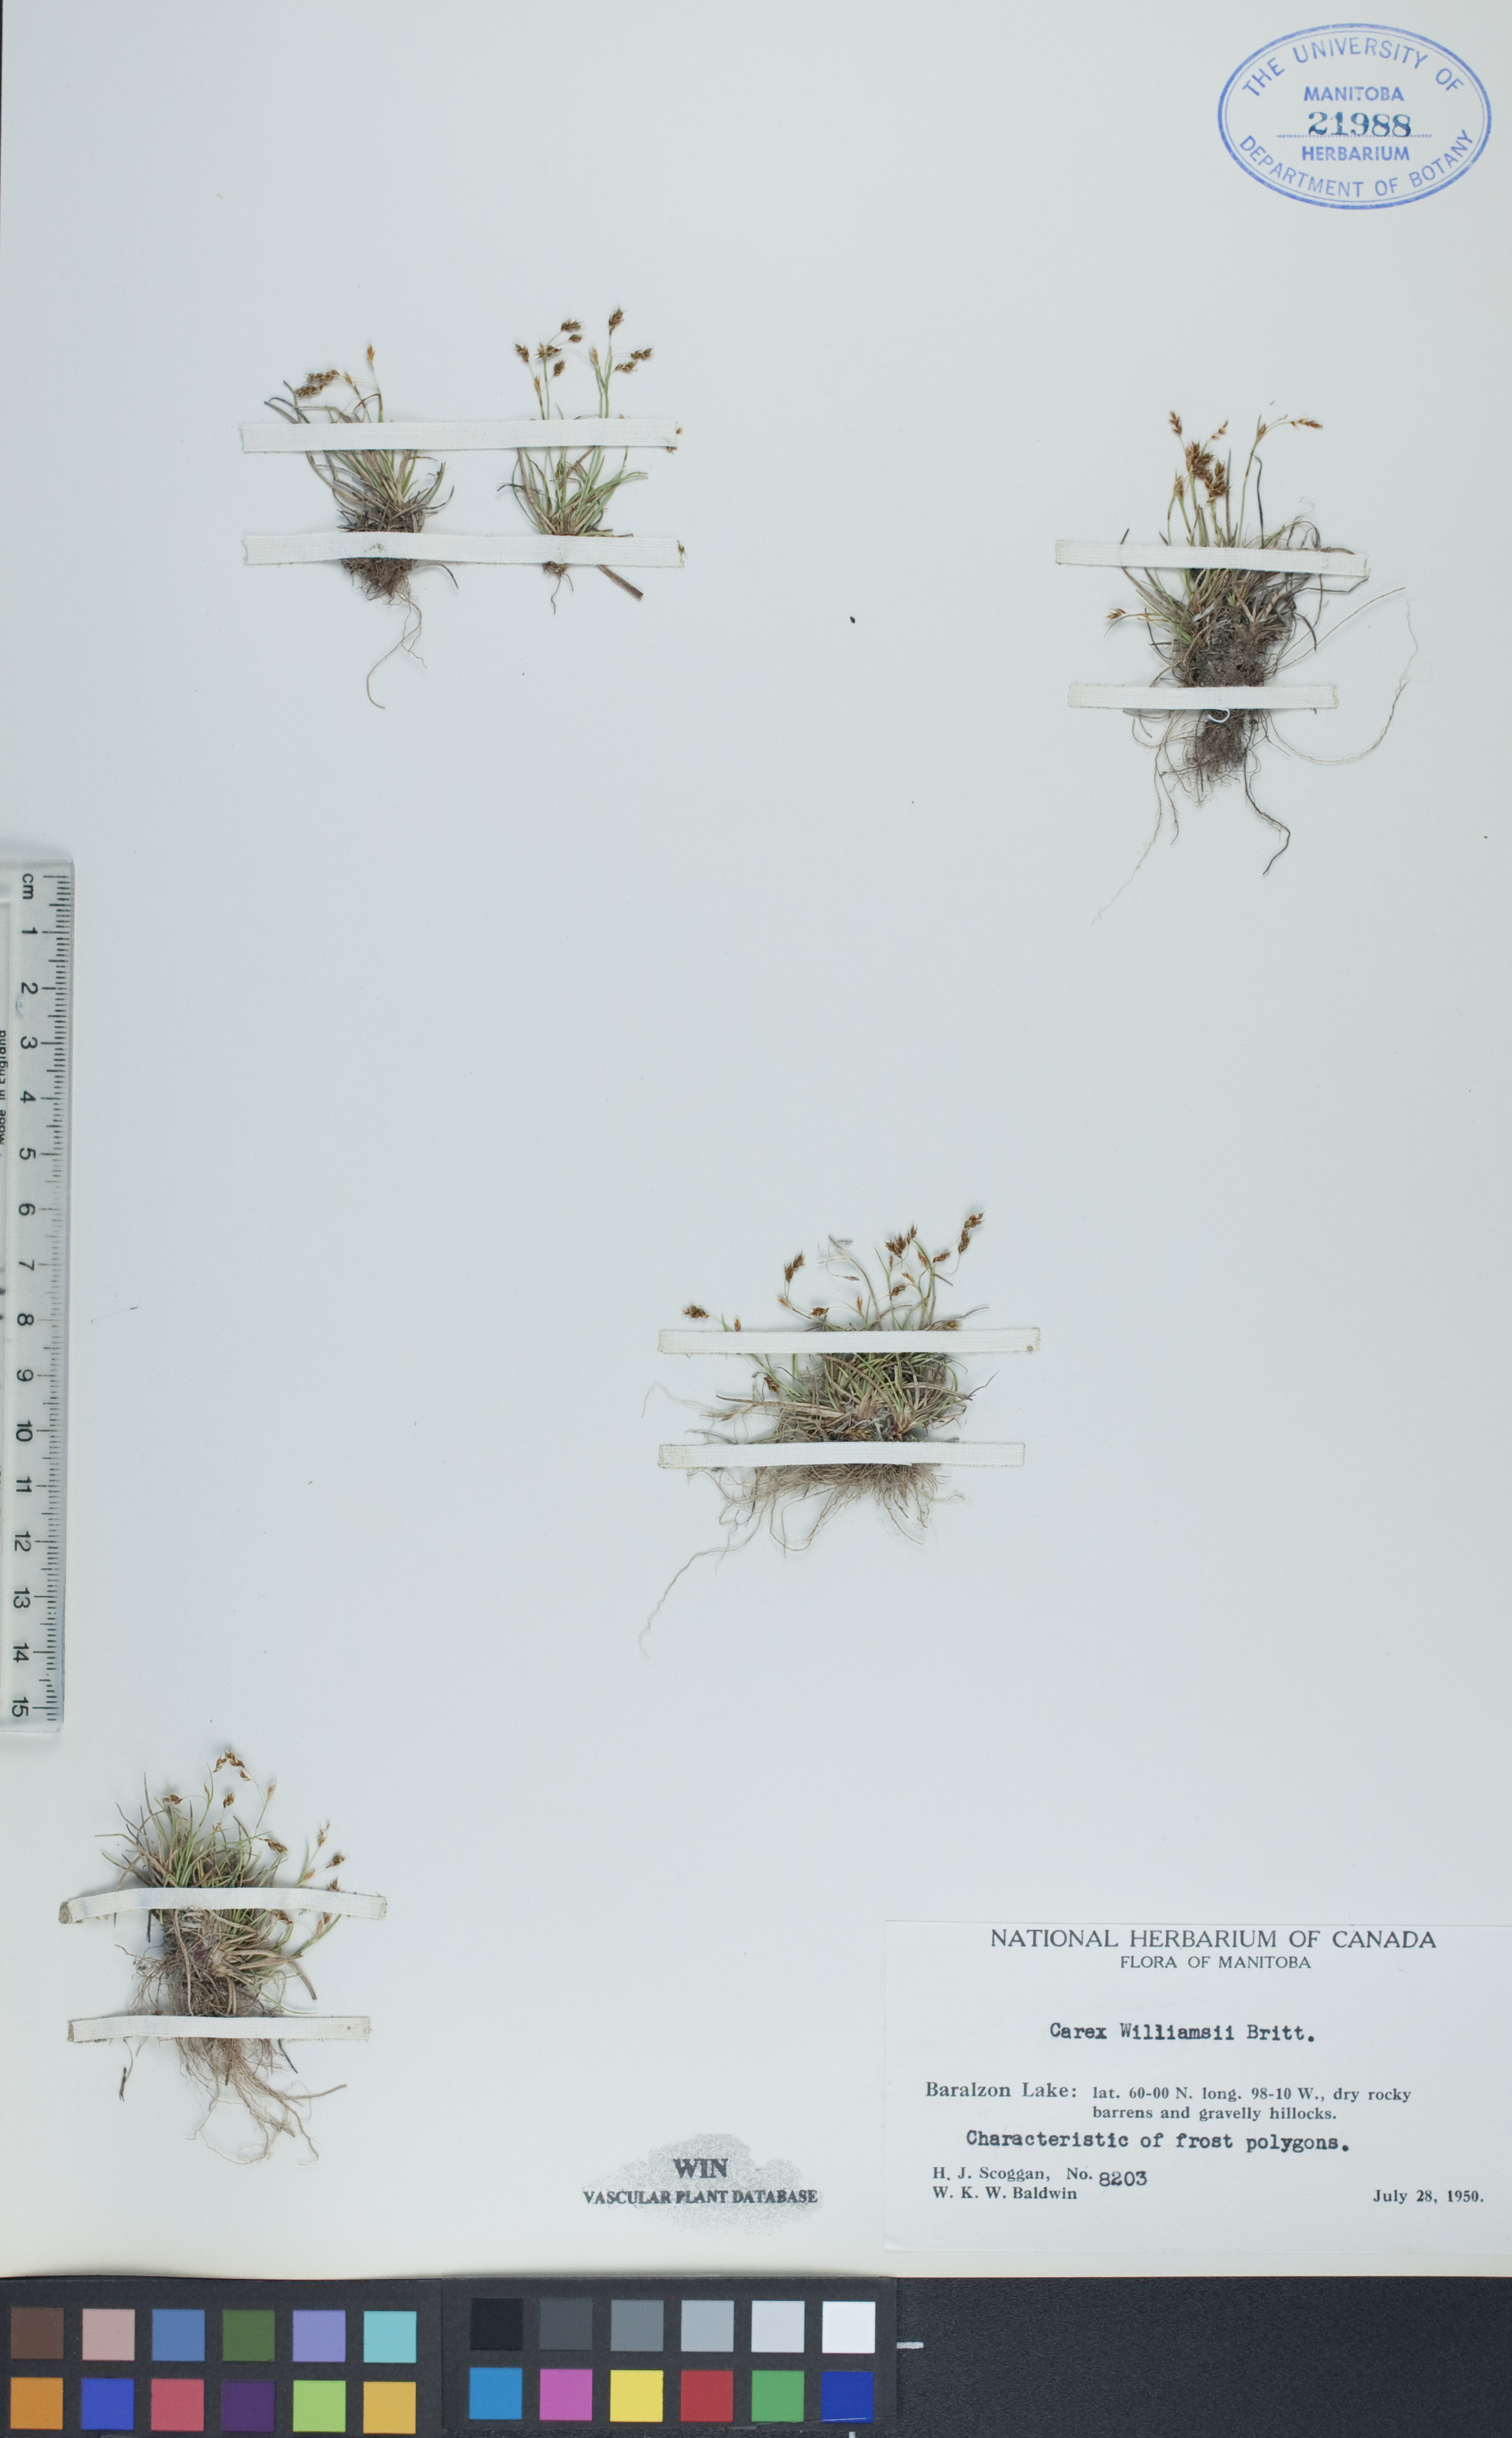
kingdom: Plantae
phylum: Tracheophyta
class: Liliopsida
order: Poales
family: Cyperaceae
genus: Carex
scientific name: Carex williamsii
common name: Williams' sedge
